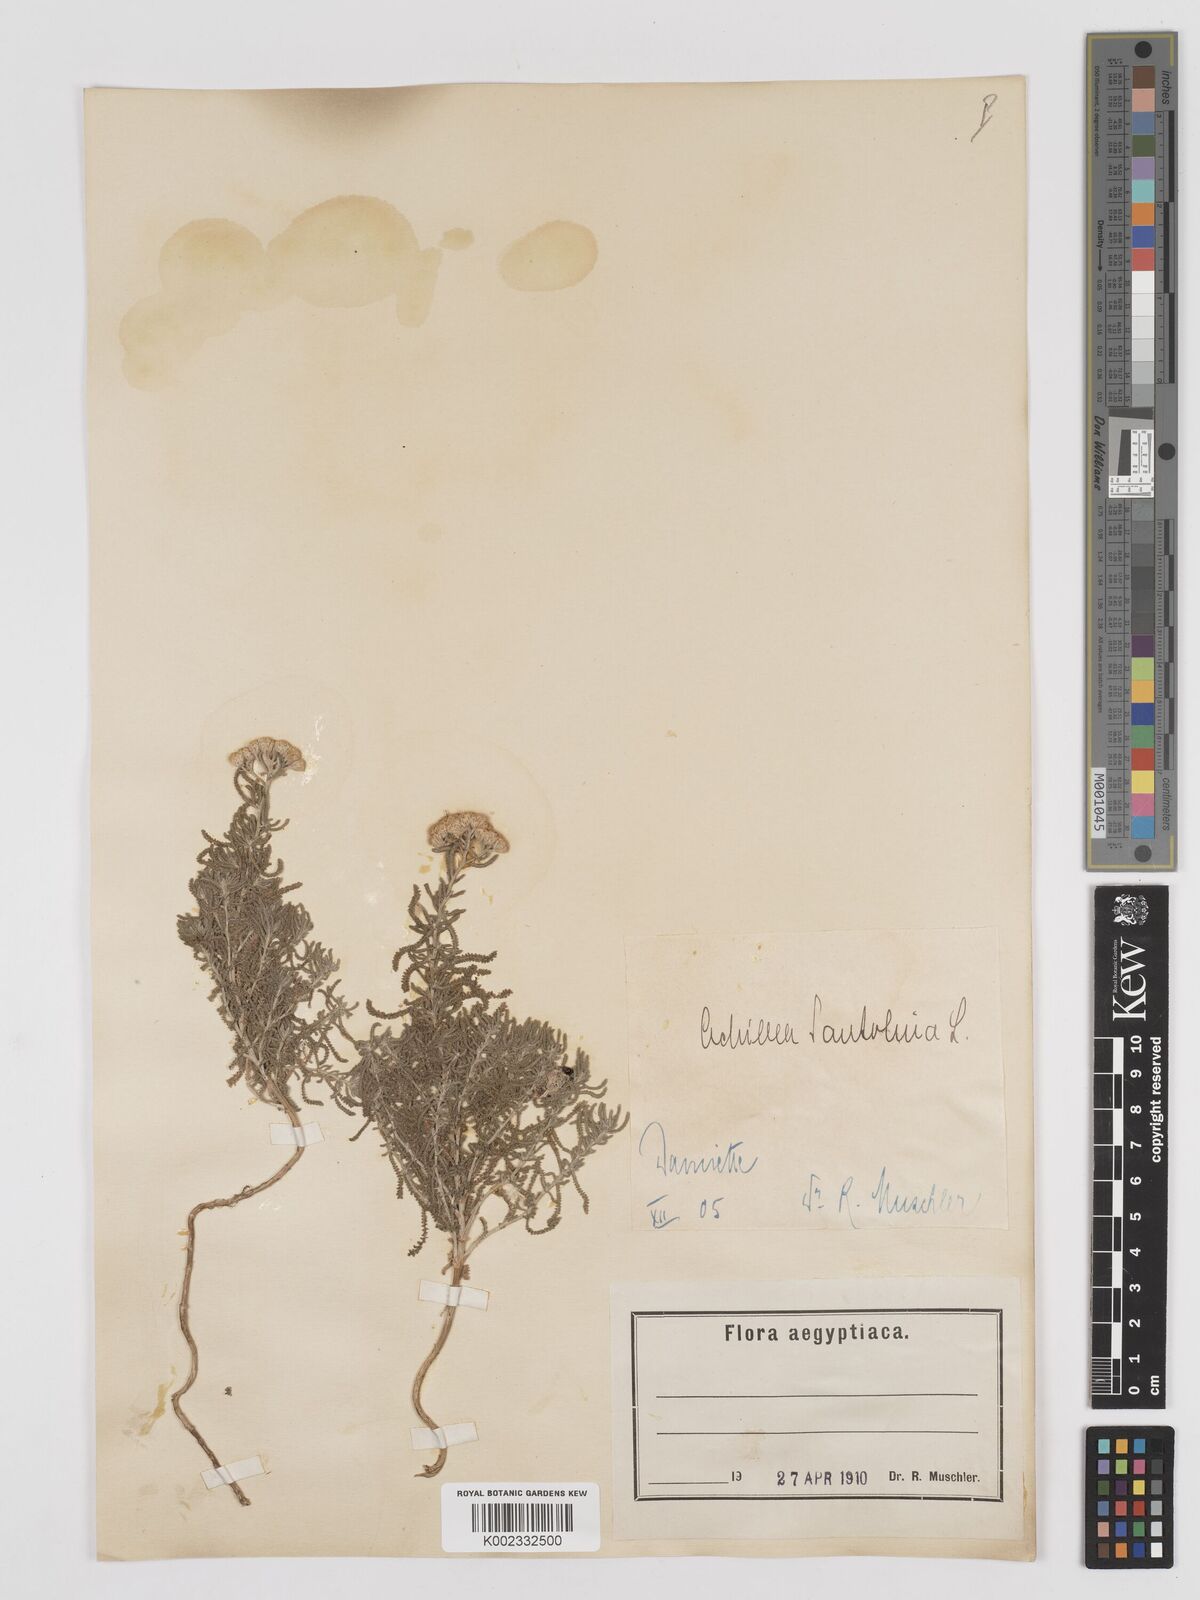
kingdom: Plantae
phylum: Tracheophyta
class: Magnoliopsida
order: Asterales
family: Asteraceae
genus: Achillea
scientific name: Achillea tenuifolia
